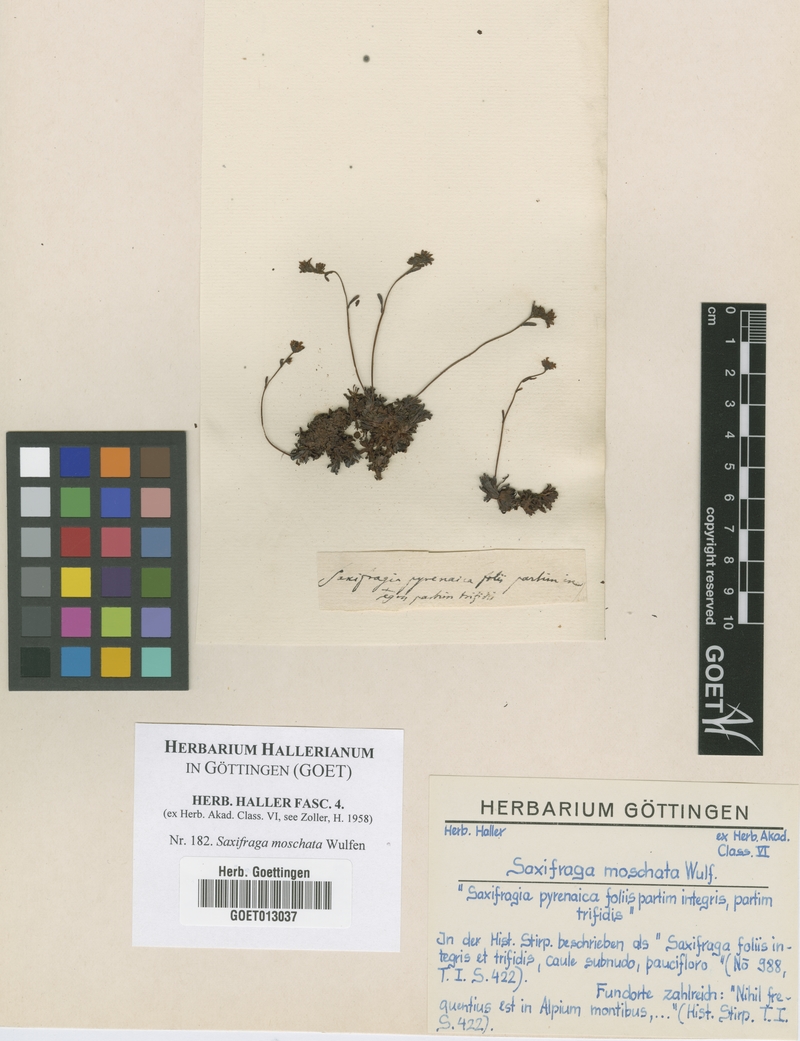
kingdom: Plantae
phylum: Tracheophyta
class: Magnoliopsida
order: Saxifragales
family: Saxifragaceae
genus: Saxifraga
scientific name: Saxifraga moschata
